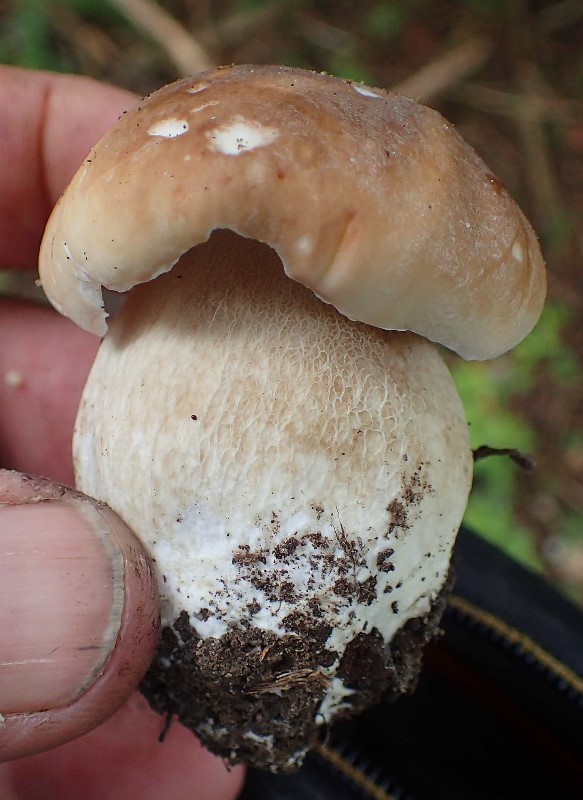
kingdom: Fungi
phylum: Basidiomycota
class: Agaricomycetes
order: Boletales
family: Boletaceae
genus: Boletus
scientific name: Boletus edulis
